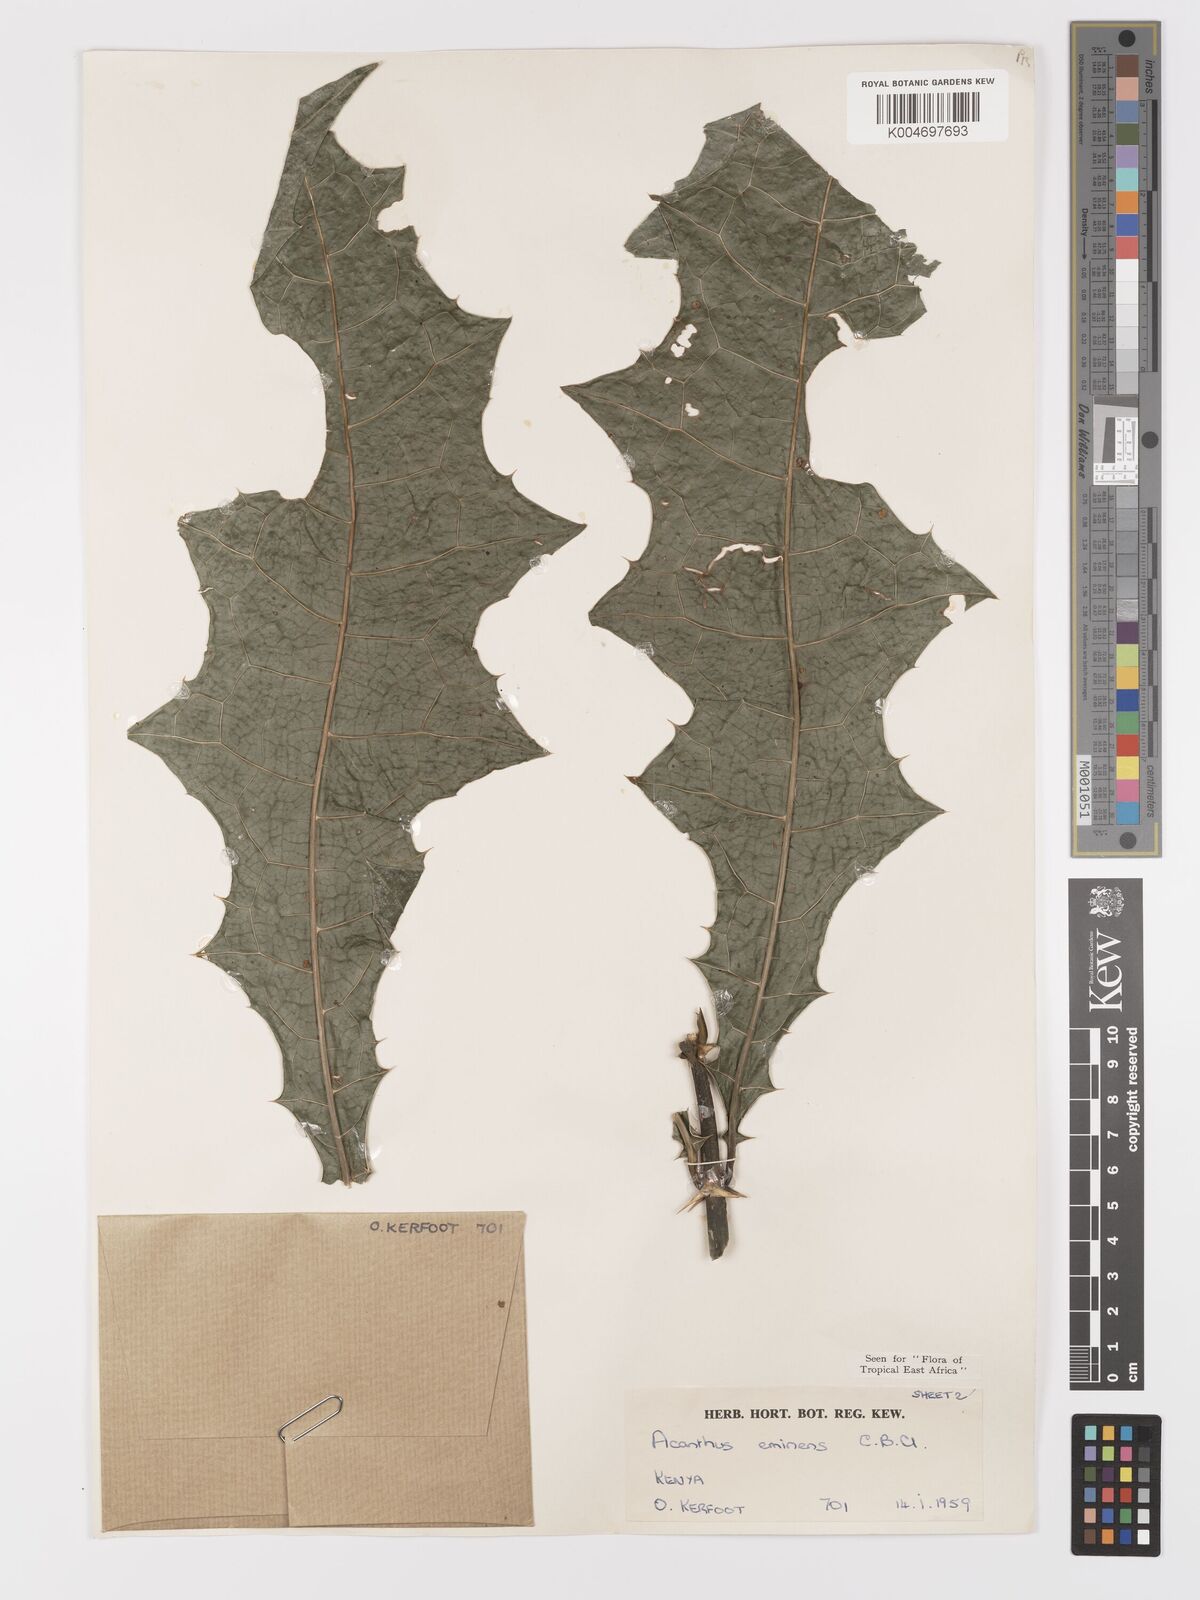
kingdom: Plantae
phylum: Tracheophyta
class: Magnoliopsida
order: Lamiales
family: Acanthaceae
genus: Acanthus
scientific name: Acanthus eminens
